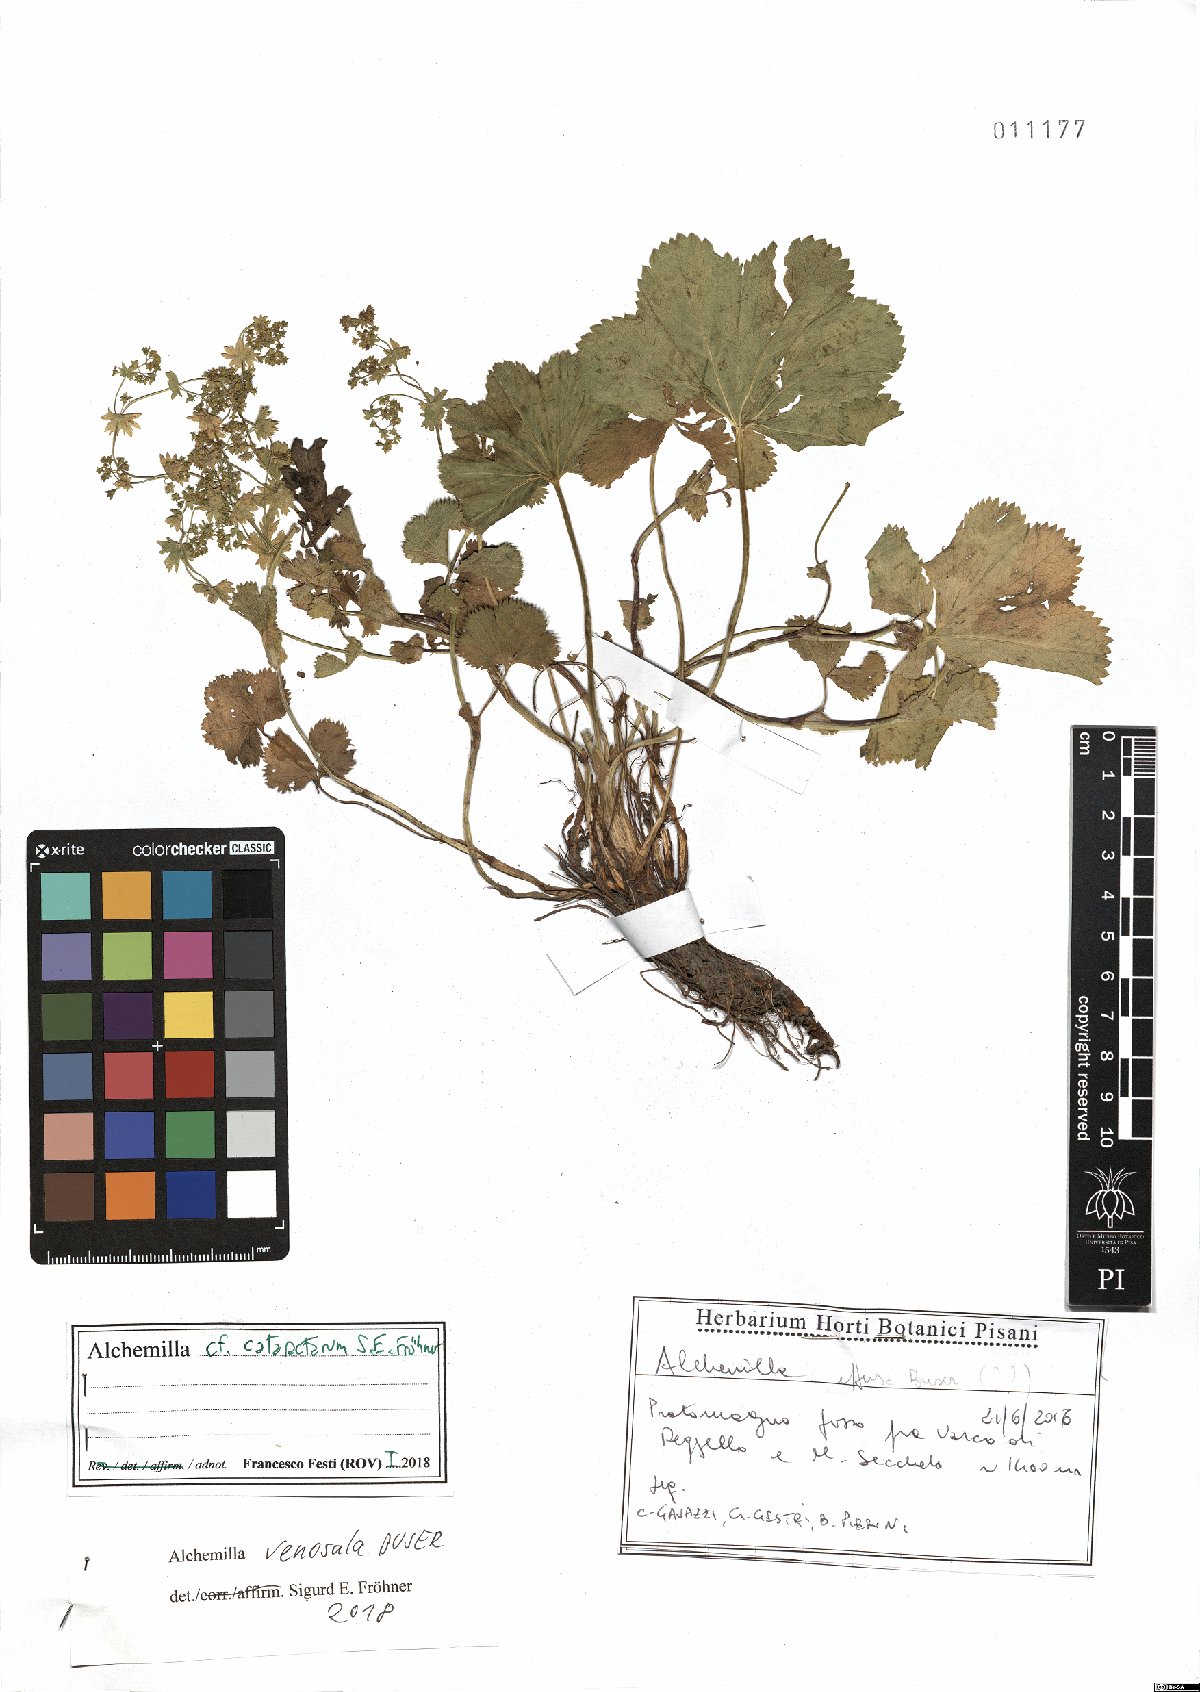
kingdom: Plantae
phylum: Tracheophyta
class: Magnoliopsida
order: Rosales
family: Rosaceae
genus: Alchemilla
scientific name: Alchemilla venosula
